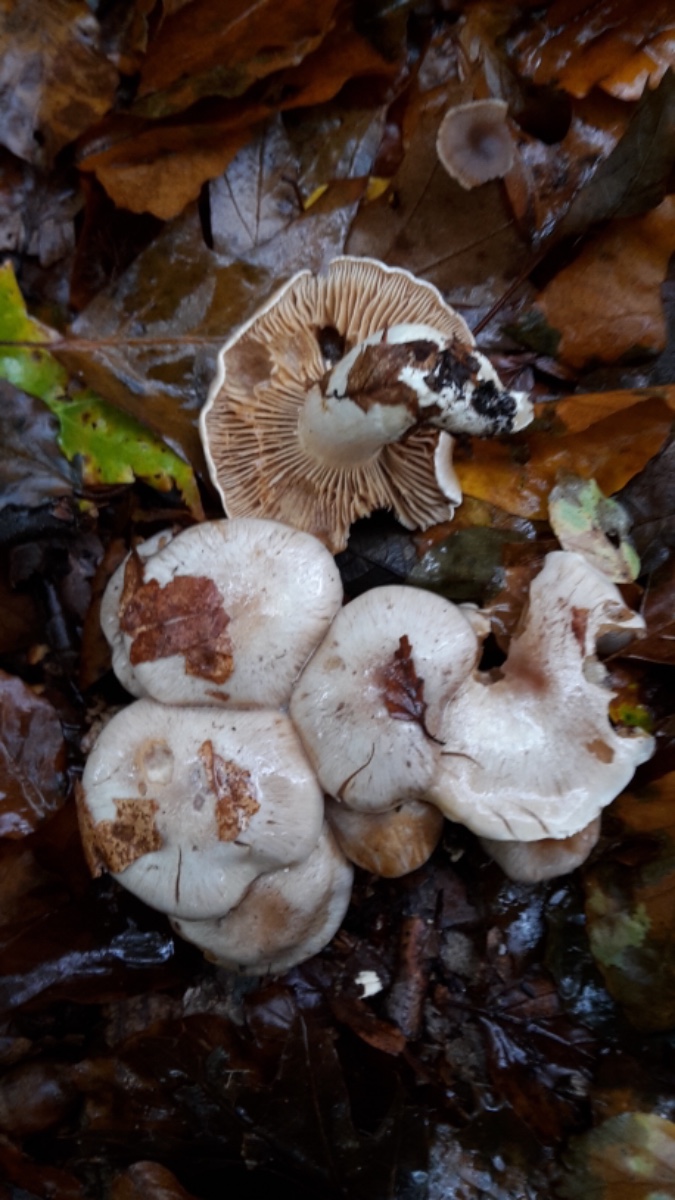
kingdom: Fungi
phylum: Basidiomycota
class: Agaricomycetes
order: Agaricales
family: Cortinariaceae
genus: Thaxterogaster
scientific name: Thaxterogaster leucoluteolus
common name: isabella slørhat
